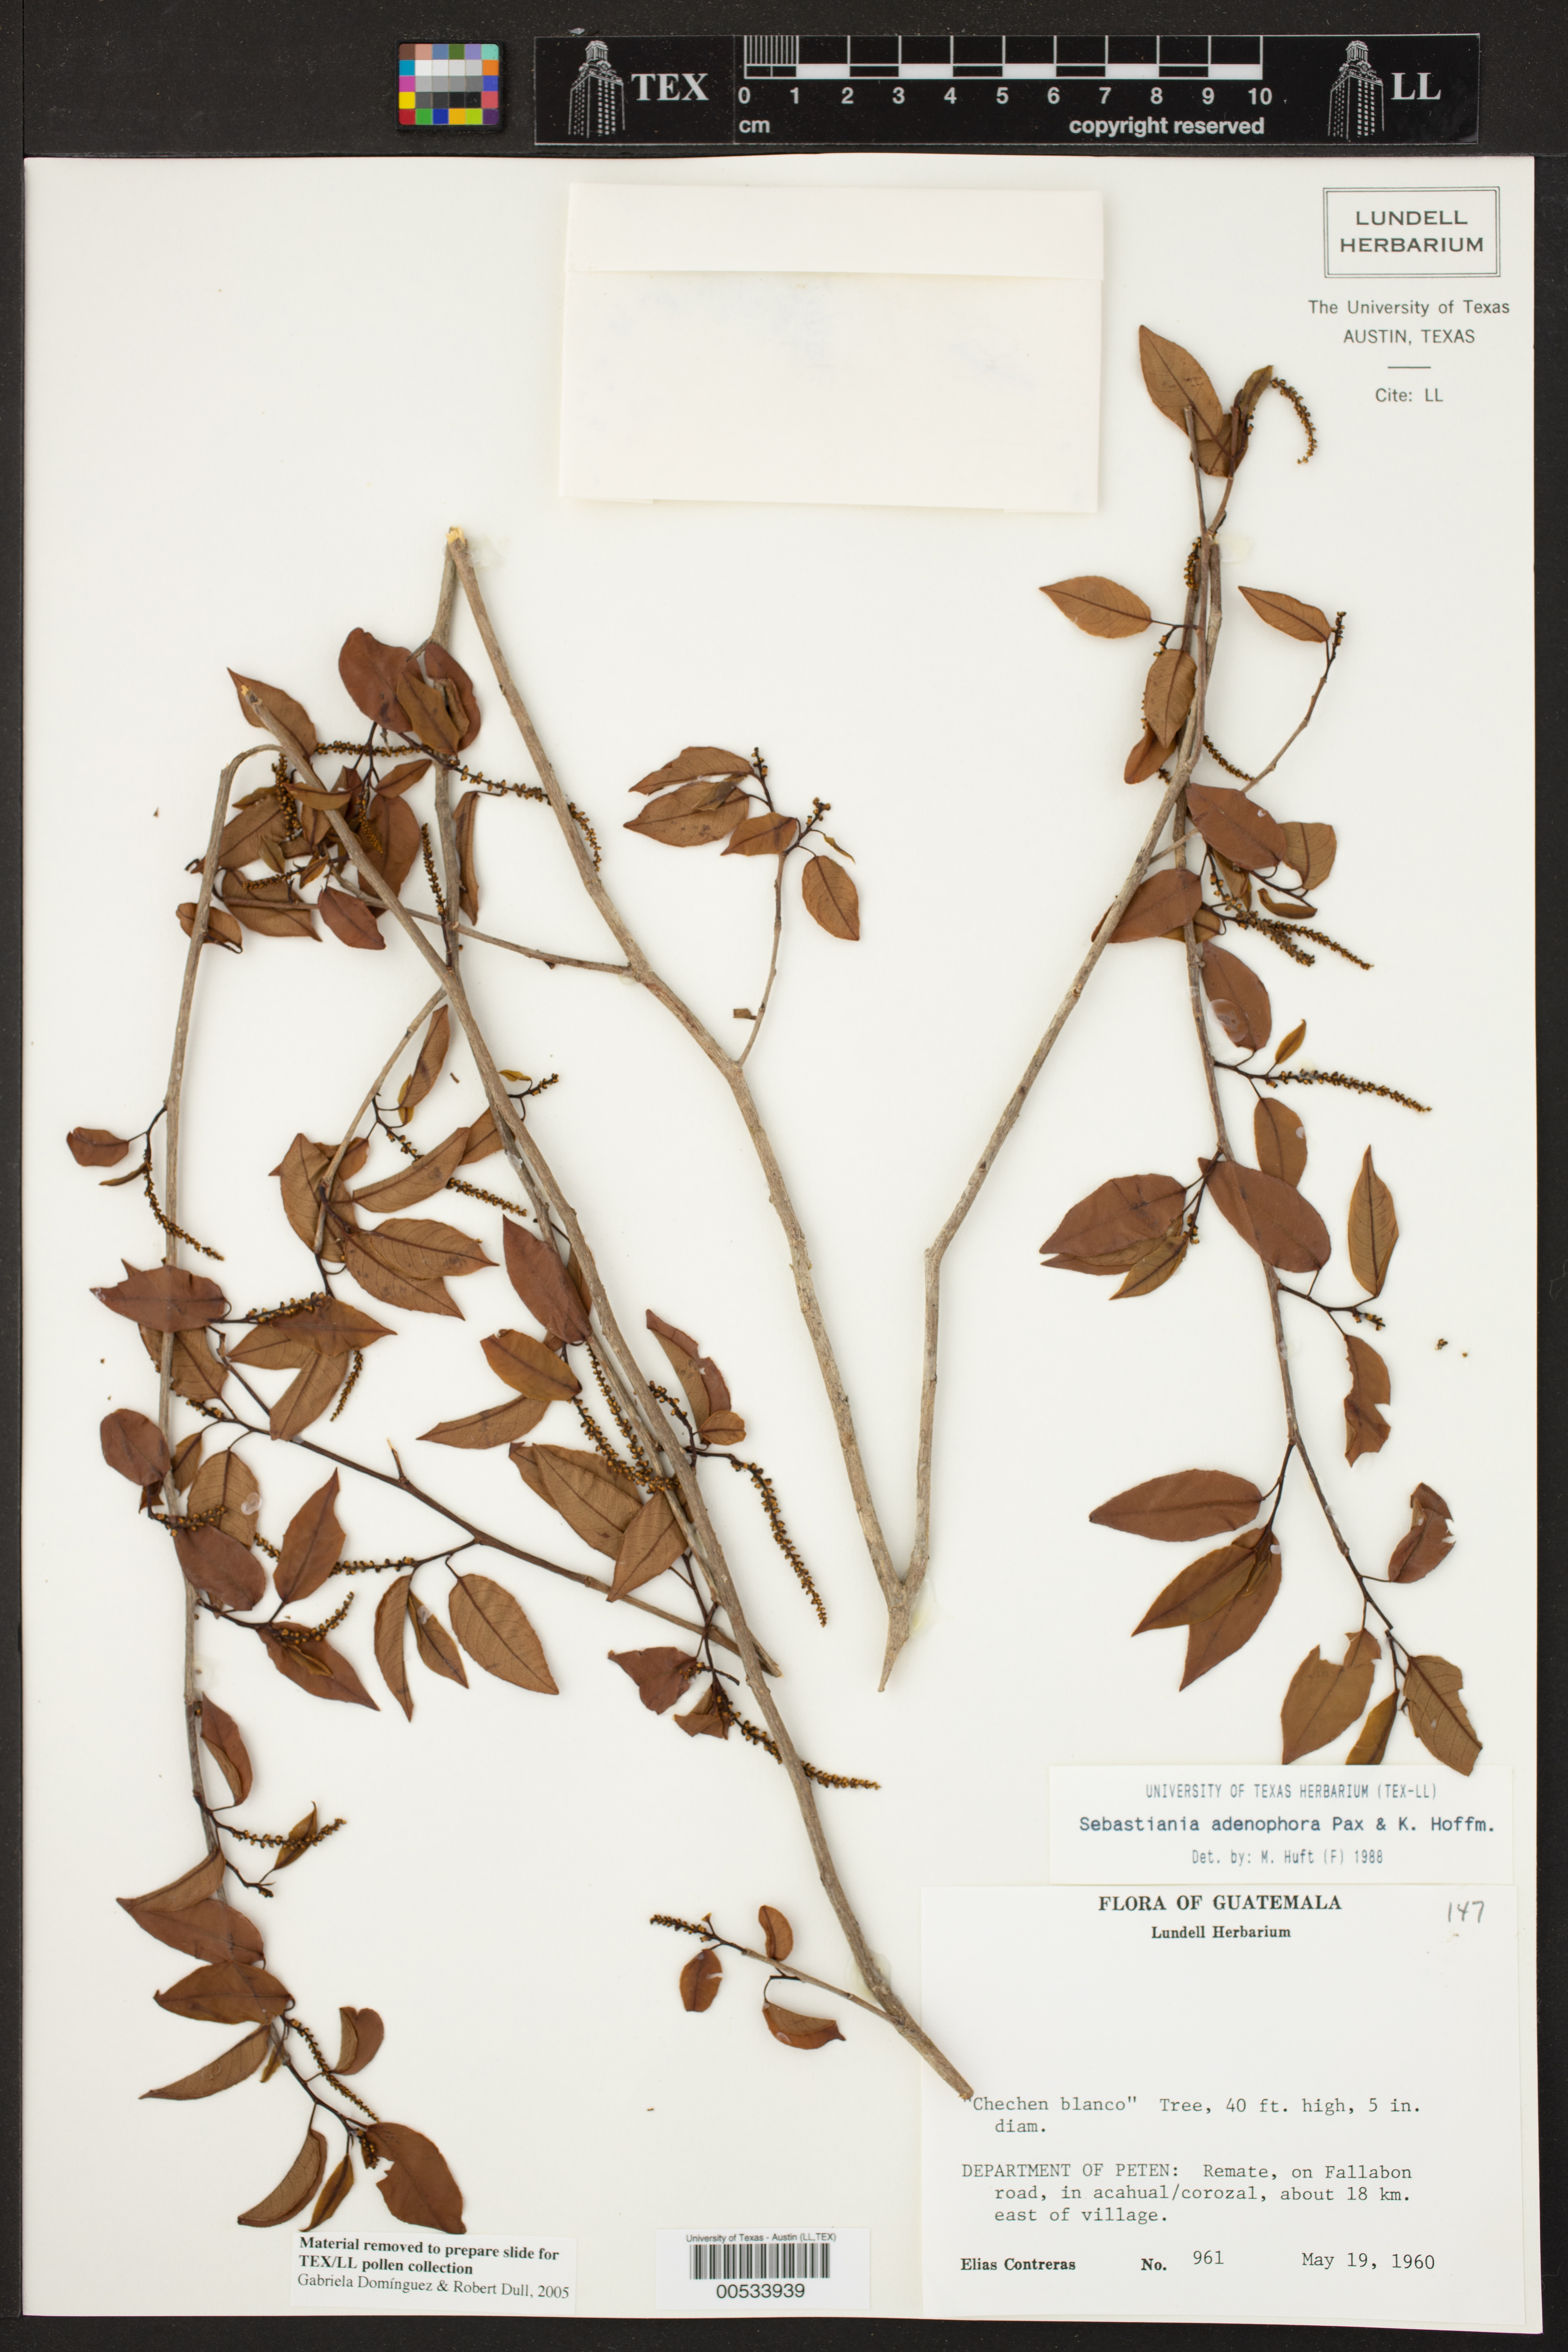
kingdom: Plantae
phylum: Tracheophyta
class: Magnoliopsida
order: Malpighiales
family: Euphorbiaceae
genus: Sebastiania
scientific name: Sebastiania glandulosa
